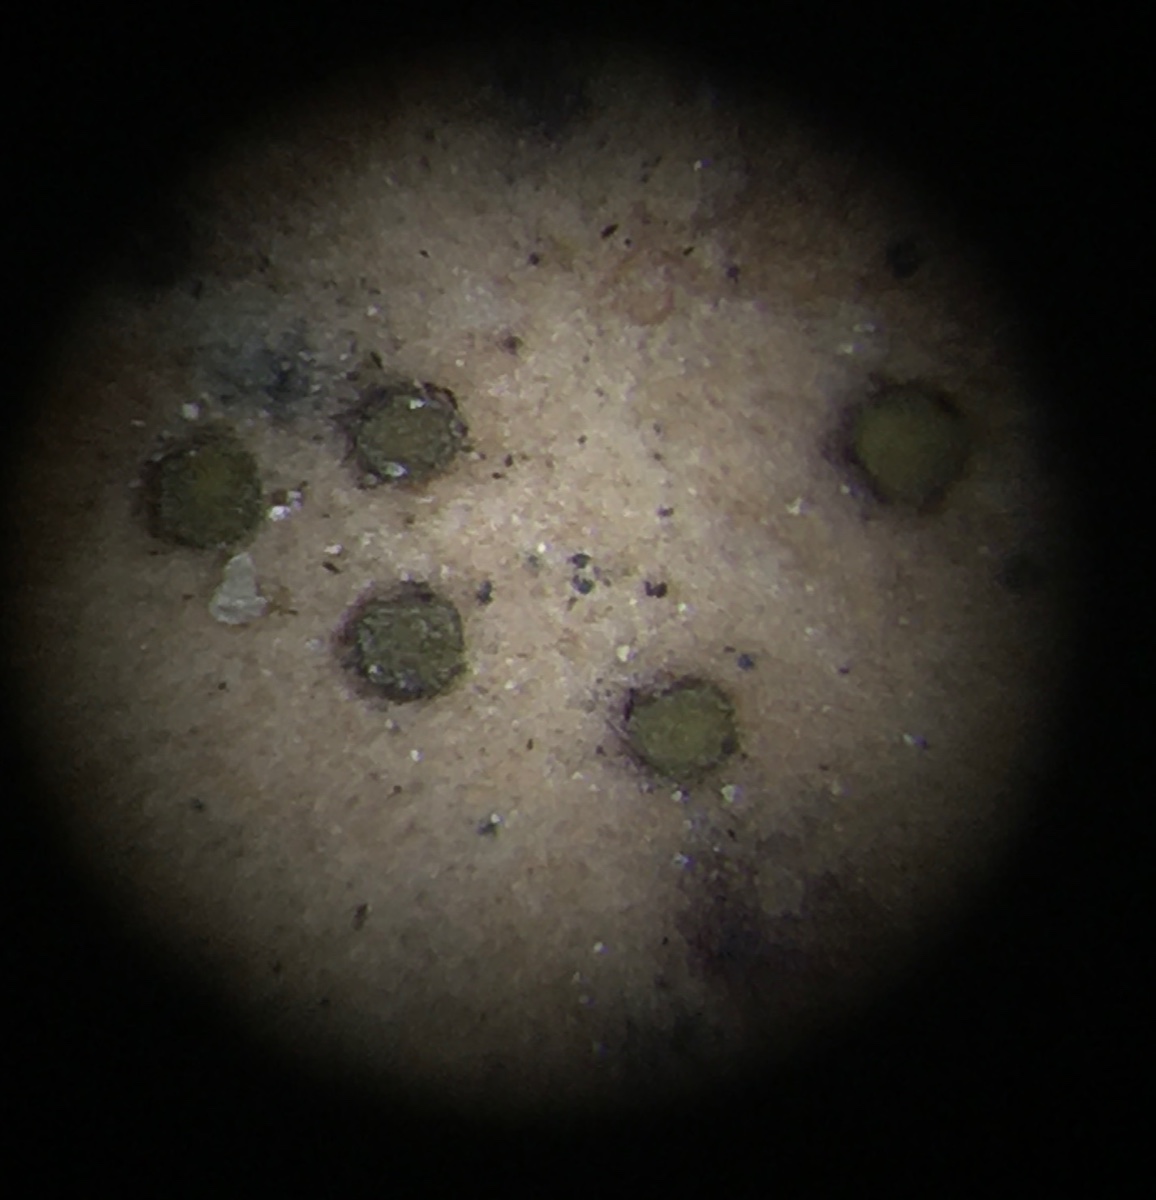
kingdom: Fungi
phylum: Ascomycota
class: Leotiomycetes
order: Helotiales
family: Cenangiaceae
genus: Trochila
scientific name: Trochila laurocerasi
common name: kirsebær-lågskive
